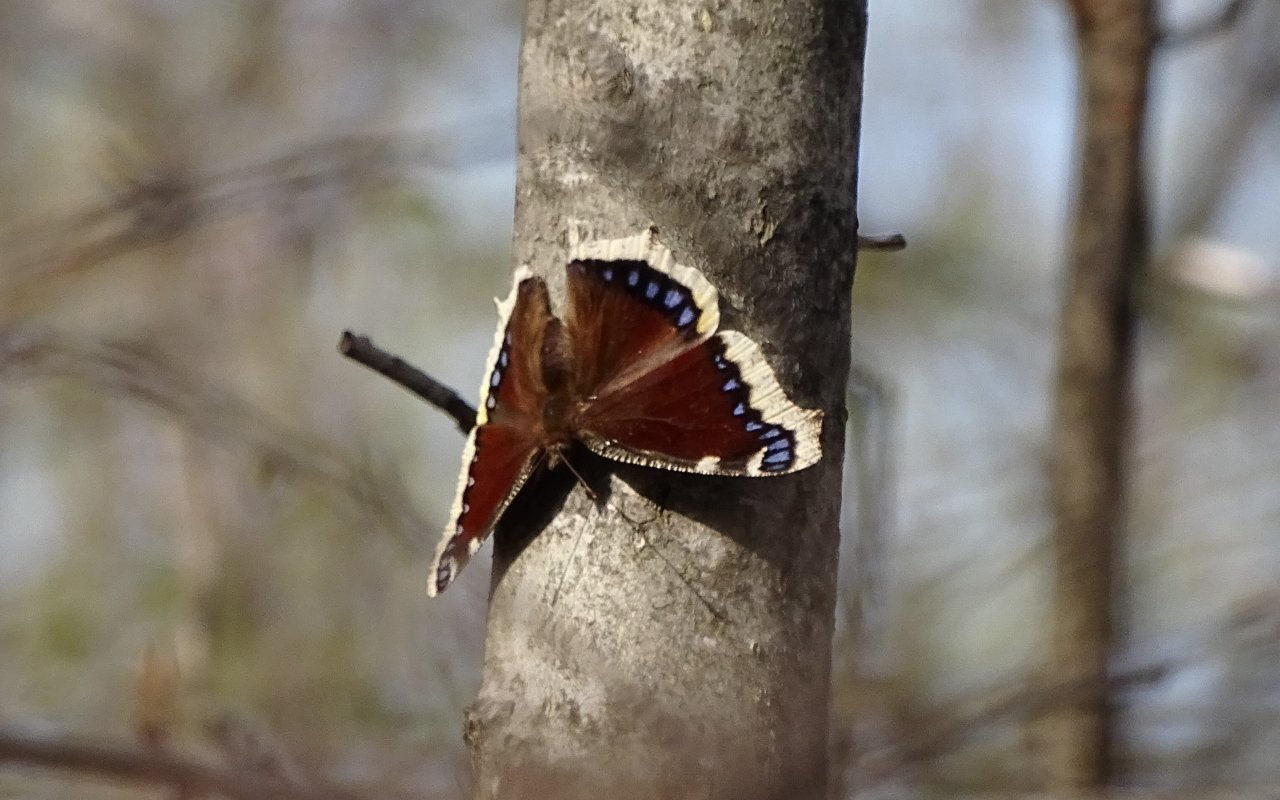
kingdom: Animalia
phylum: Arthropoda
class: Insecta
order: Lepidoptera
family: Nymphalidae
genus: Nymphalis
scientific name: Nymphalis antiopa
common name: Mourning Cloak
